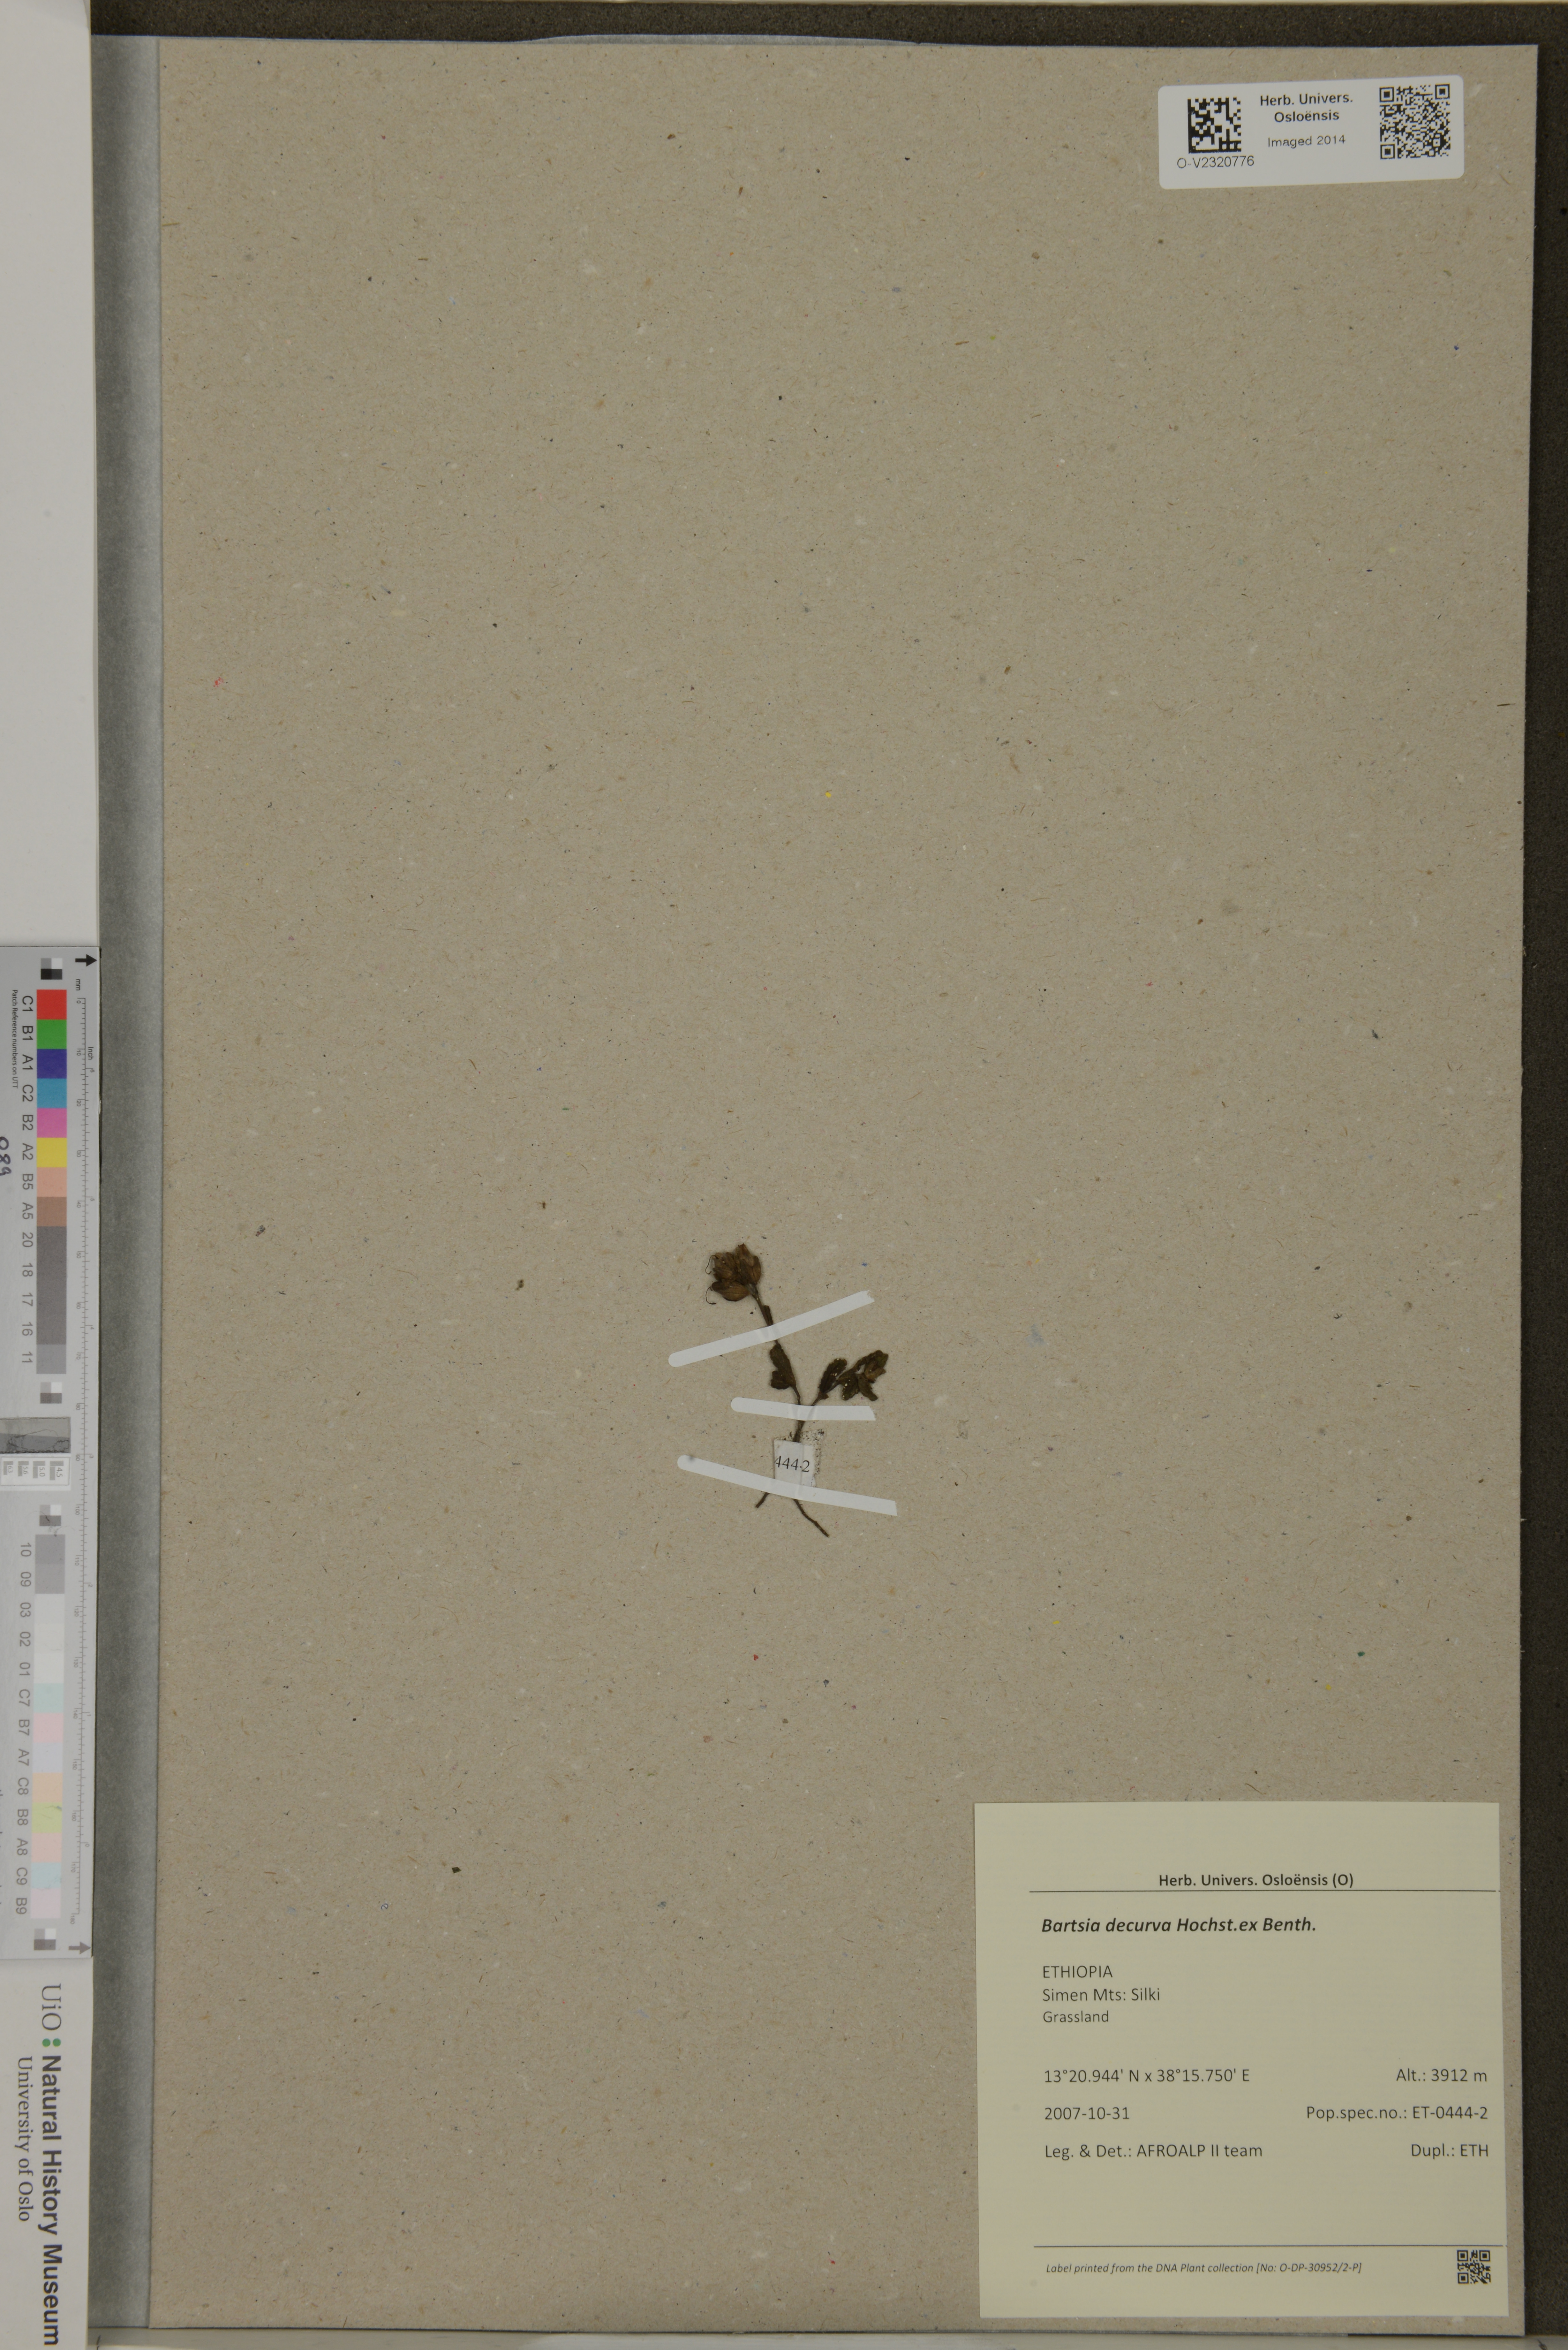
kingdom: Plantae
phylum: Tracheophyta
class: Magnoliopsida
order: Lamiales
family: Orobanchaceae
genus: Hedbergia
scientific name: Hedbergia decurva
